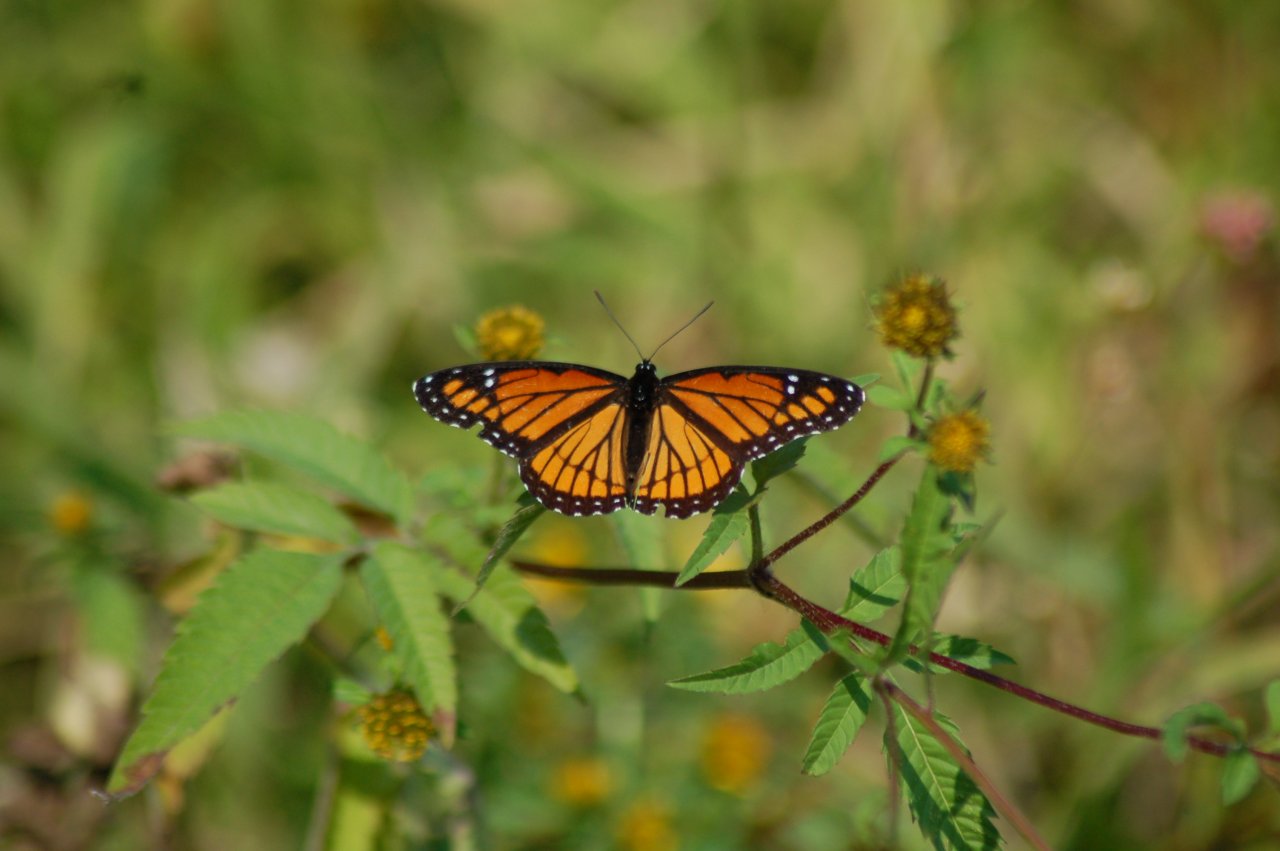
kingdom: Animalia
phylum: Arthropoda
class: Insecta
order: Lepidoptera
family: Nymphalidae
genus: Limenitis
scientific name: Limenitis archippus
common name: Viceroy
